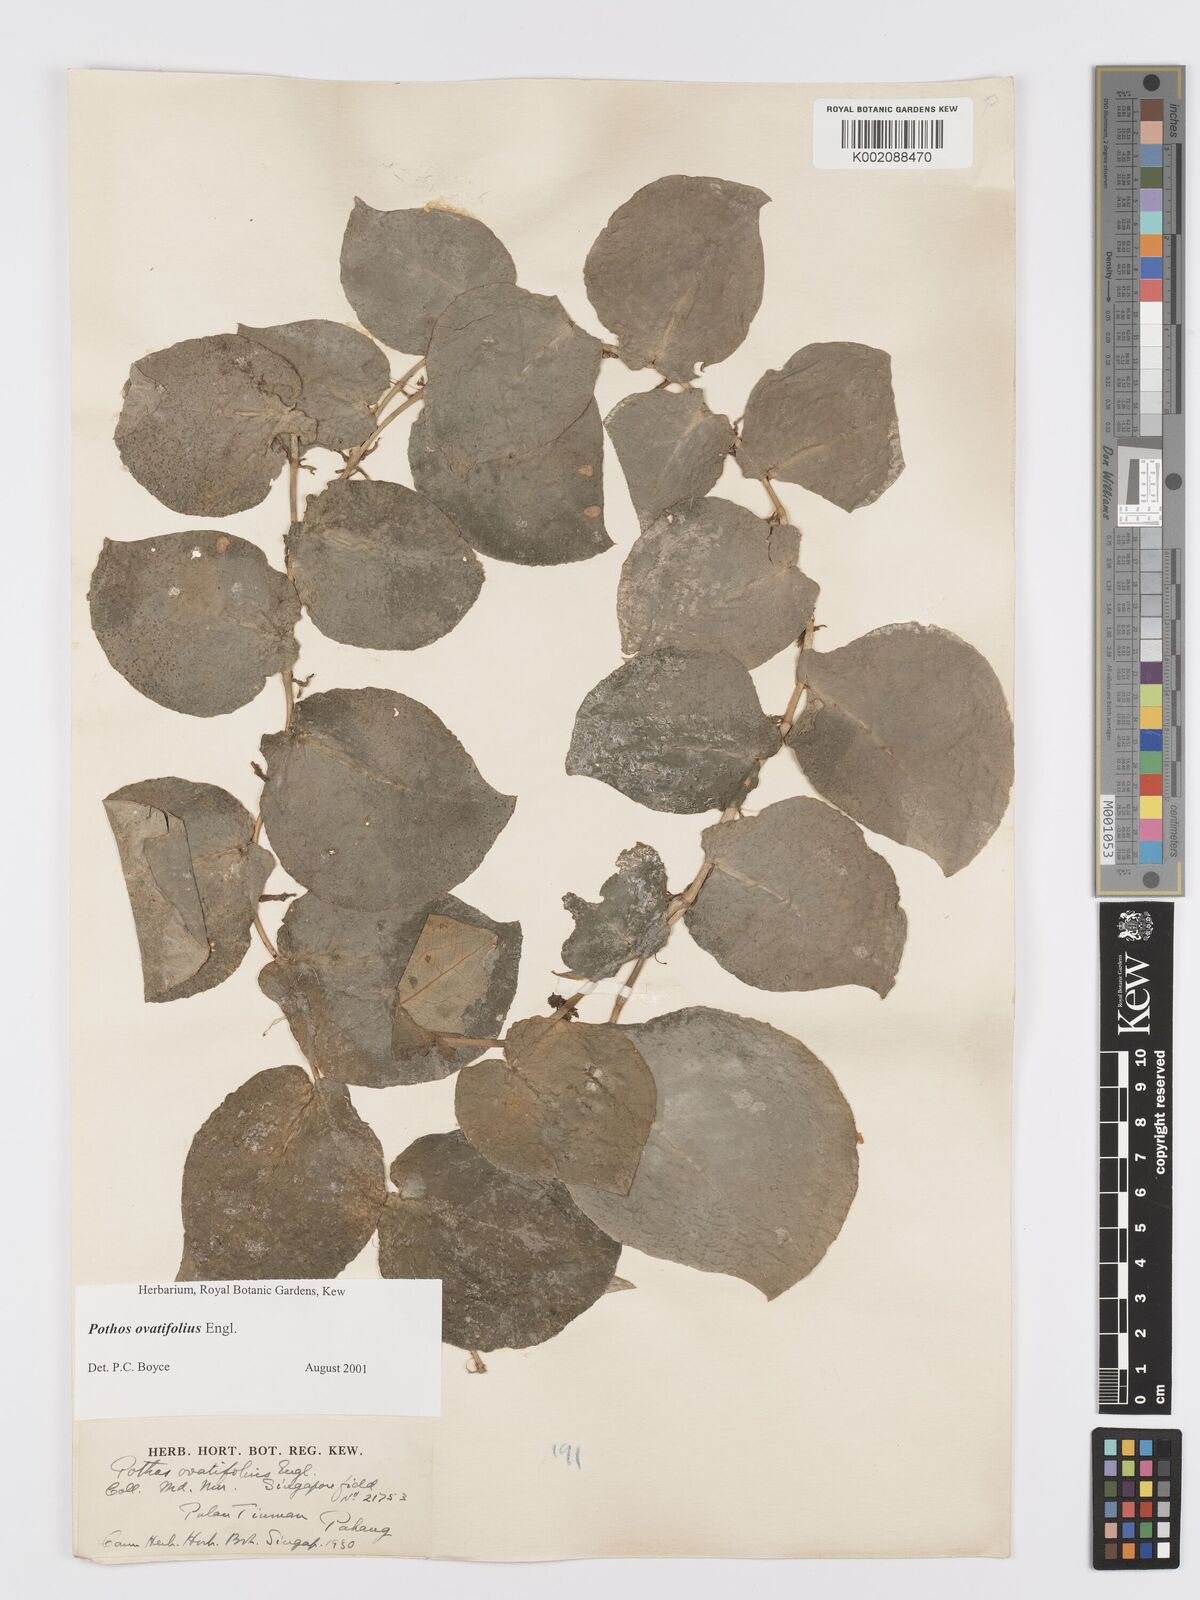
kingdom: Plantae
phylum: Tracheophyta
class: Liliopsida
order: Alismatales
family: Araceae
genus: Pothos
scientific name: Pothos ovatifolius
